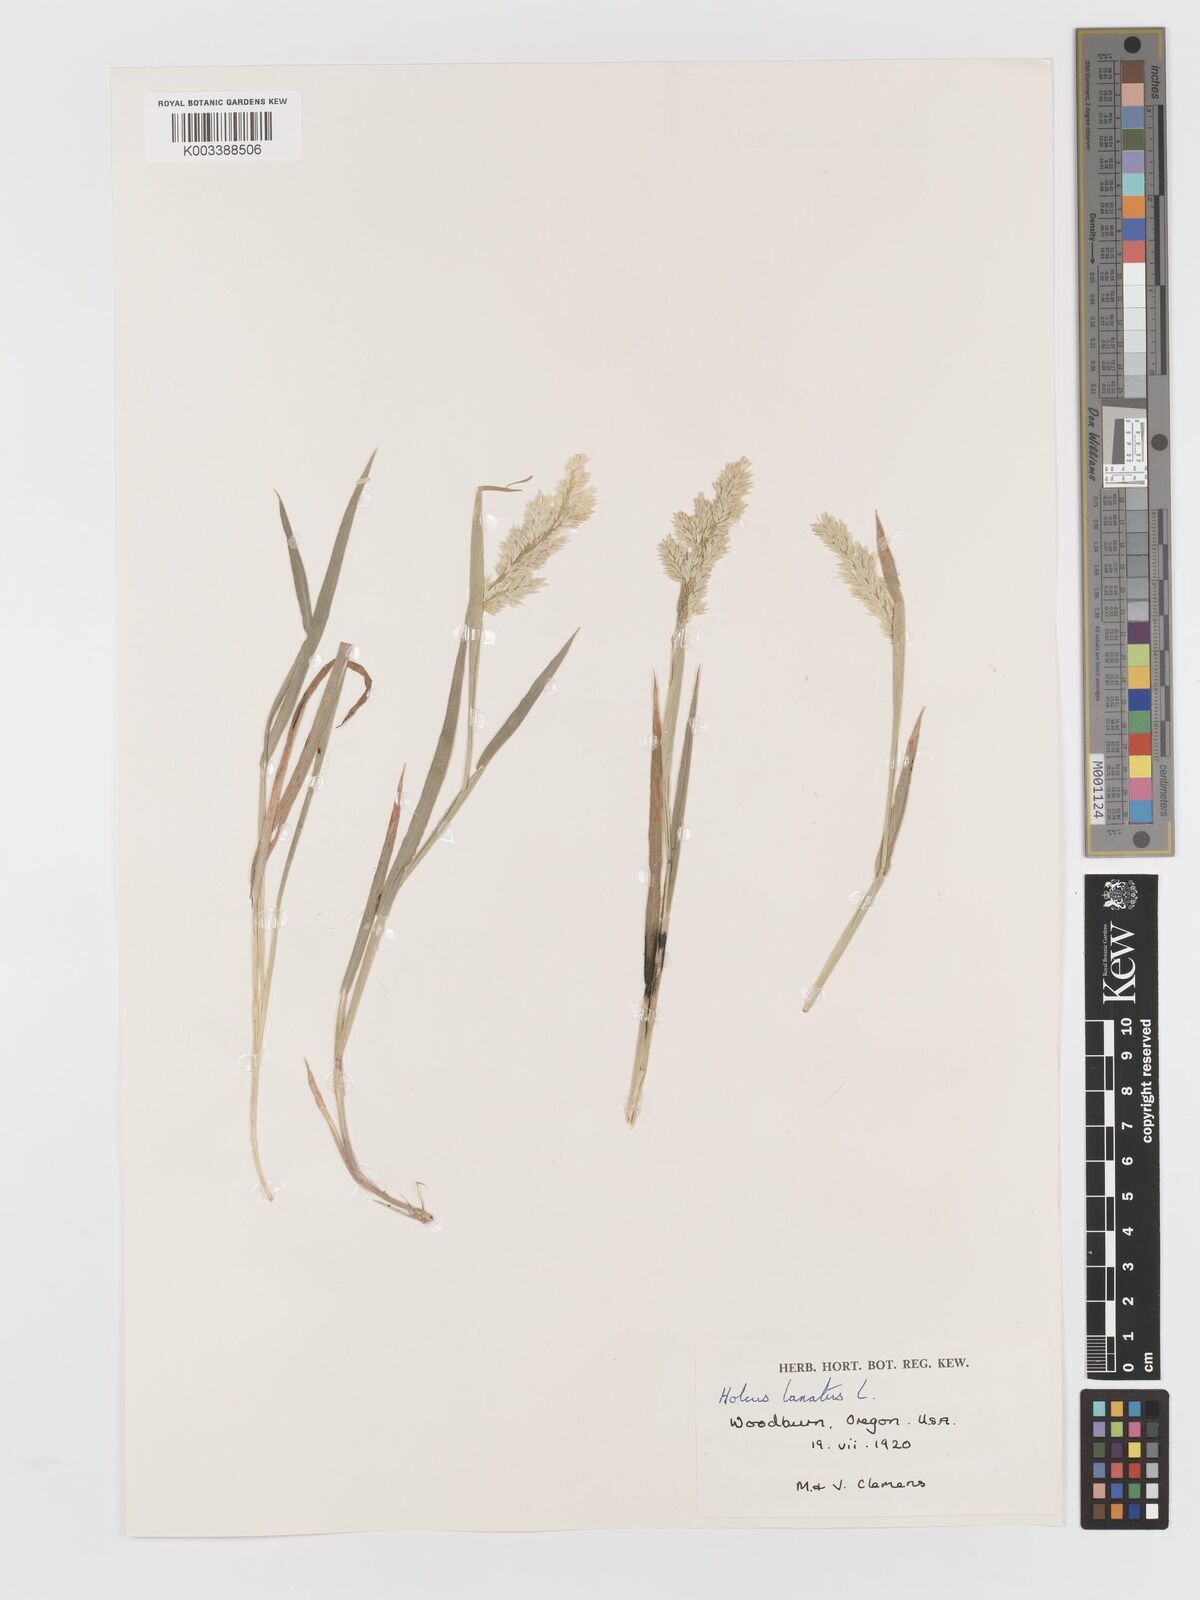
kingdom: Plantae
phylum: Tracheophyta
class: Liliopsida
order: Poales
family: Poaceae
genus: Holcus
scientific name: Holcus lanatus
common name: Yorkshire-fog
